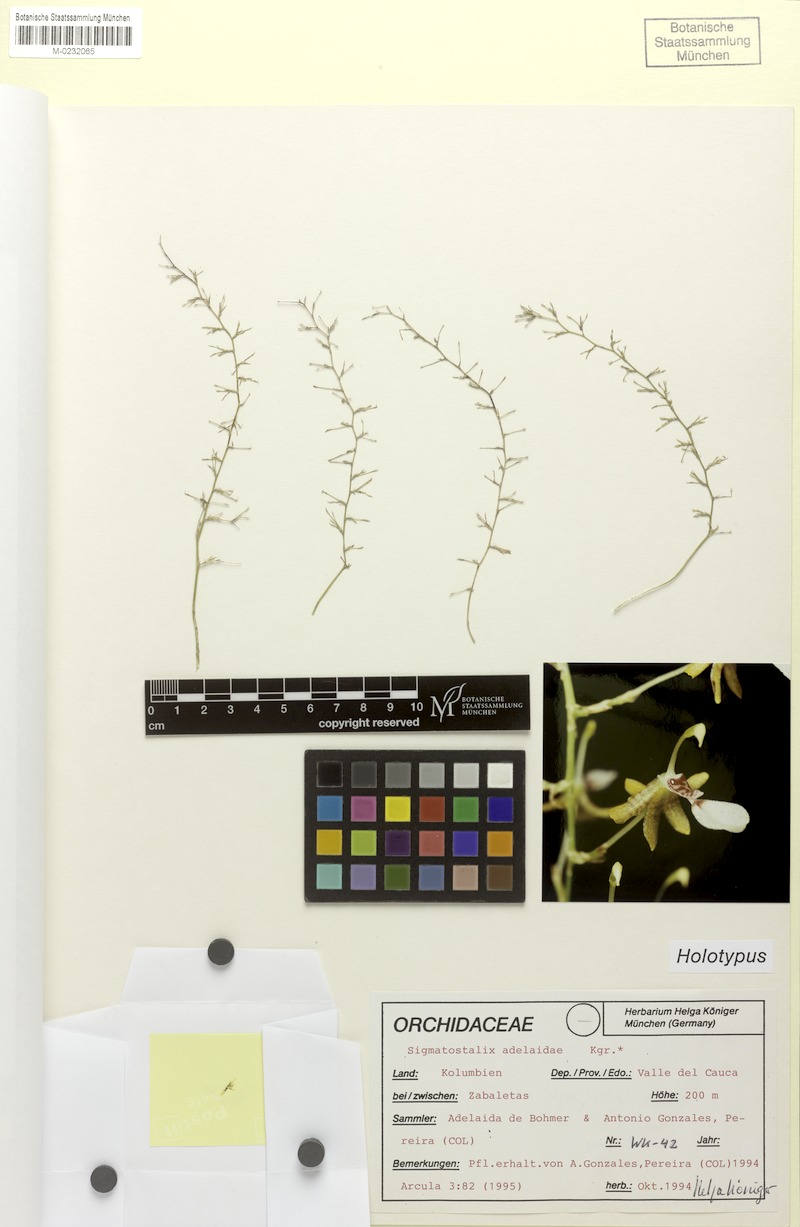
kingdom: Plantae
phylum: Tracheophyta
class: Liliopsida
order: Asparagales
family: Orchidaceae
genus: Oncidium
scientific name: Oncidium sathishkumarii
